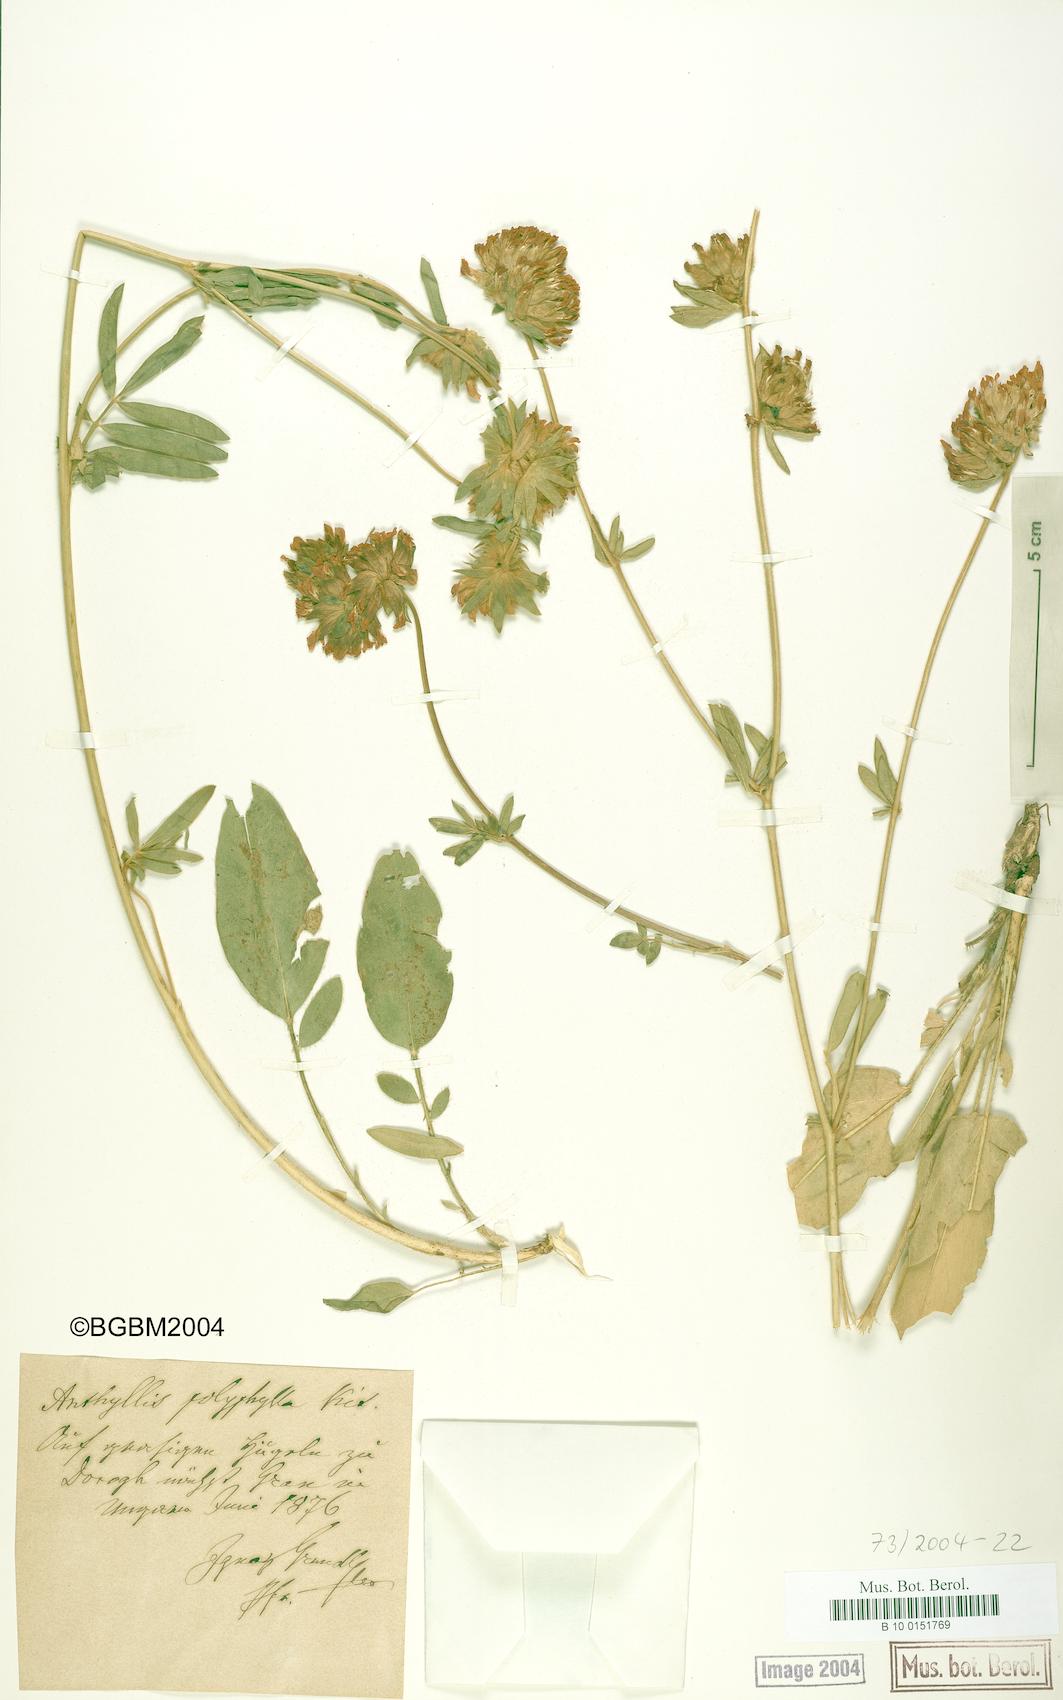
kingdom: Plantae
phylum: Tracheophyta
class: Magnoliopsida
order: Fabales
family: Fabaceae
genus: Anthyllis
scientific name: Anthyllis vulneraria
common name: Kidney vetch
